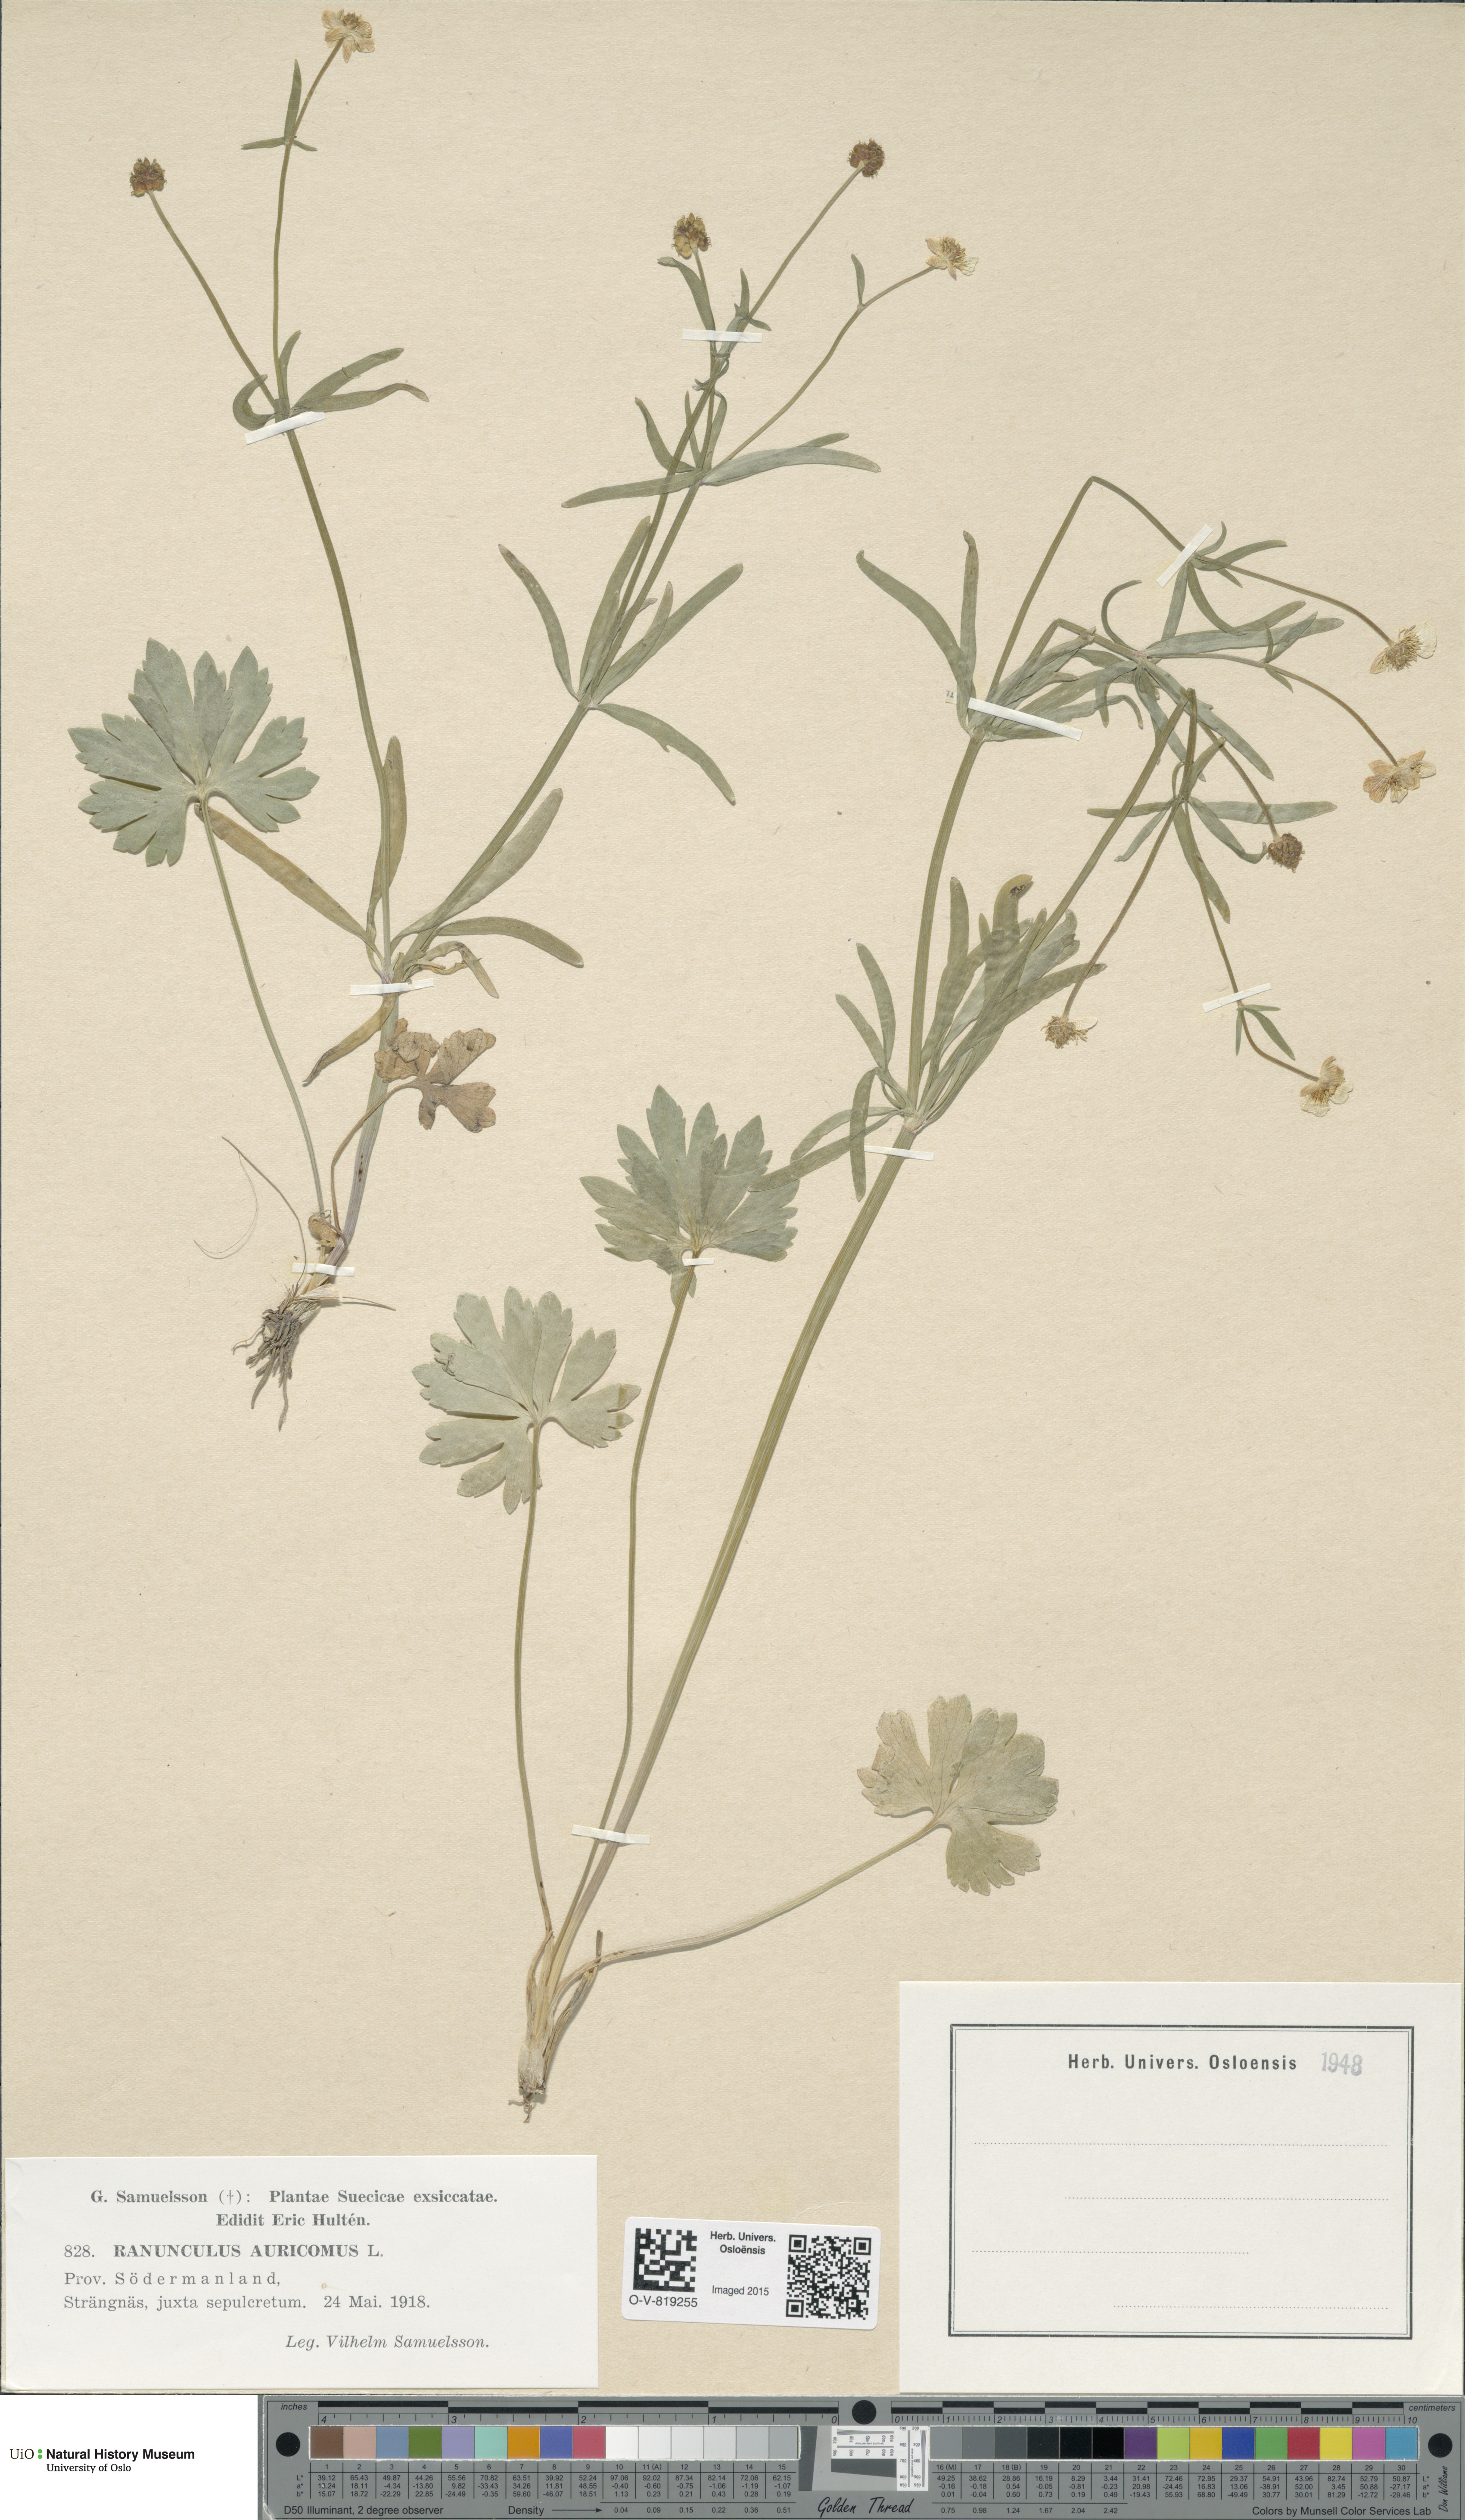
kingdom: Plantae
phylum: Tracheophyta
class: Magnoliopsida
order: Ranunculales
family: Ranunculaceae
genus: Ranunculus
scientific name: Ranunculus auricomus
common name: Goldilocks buttercup
